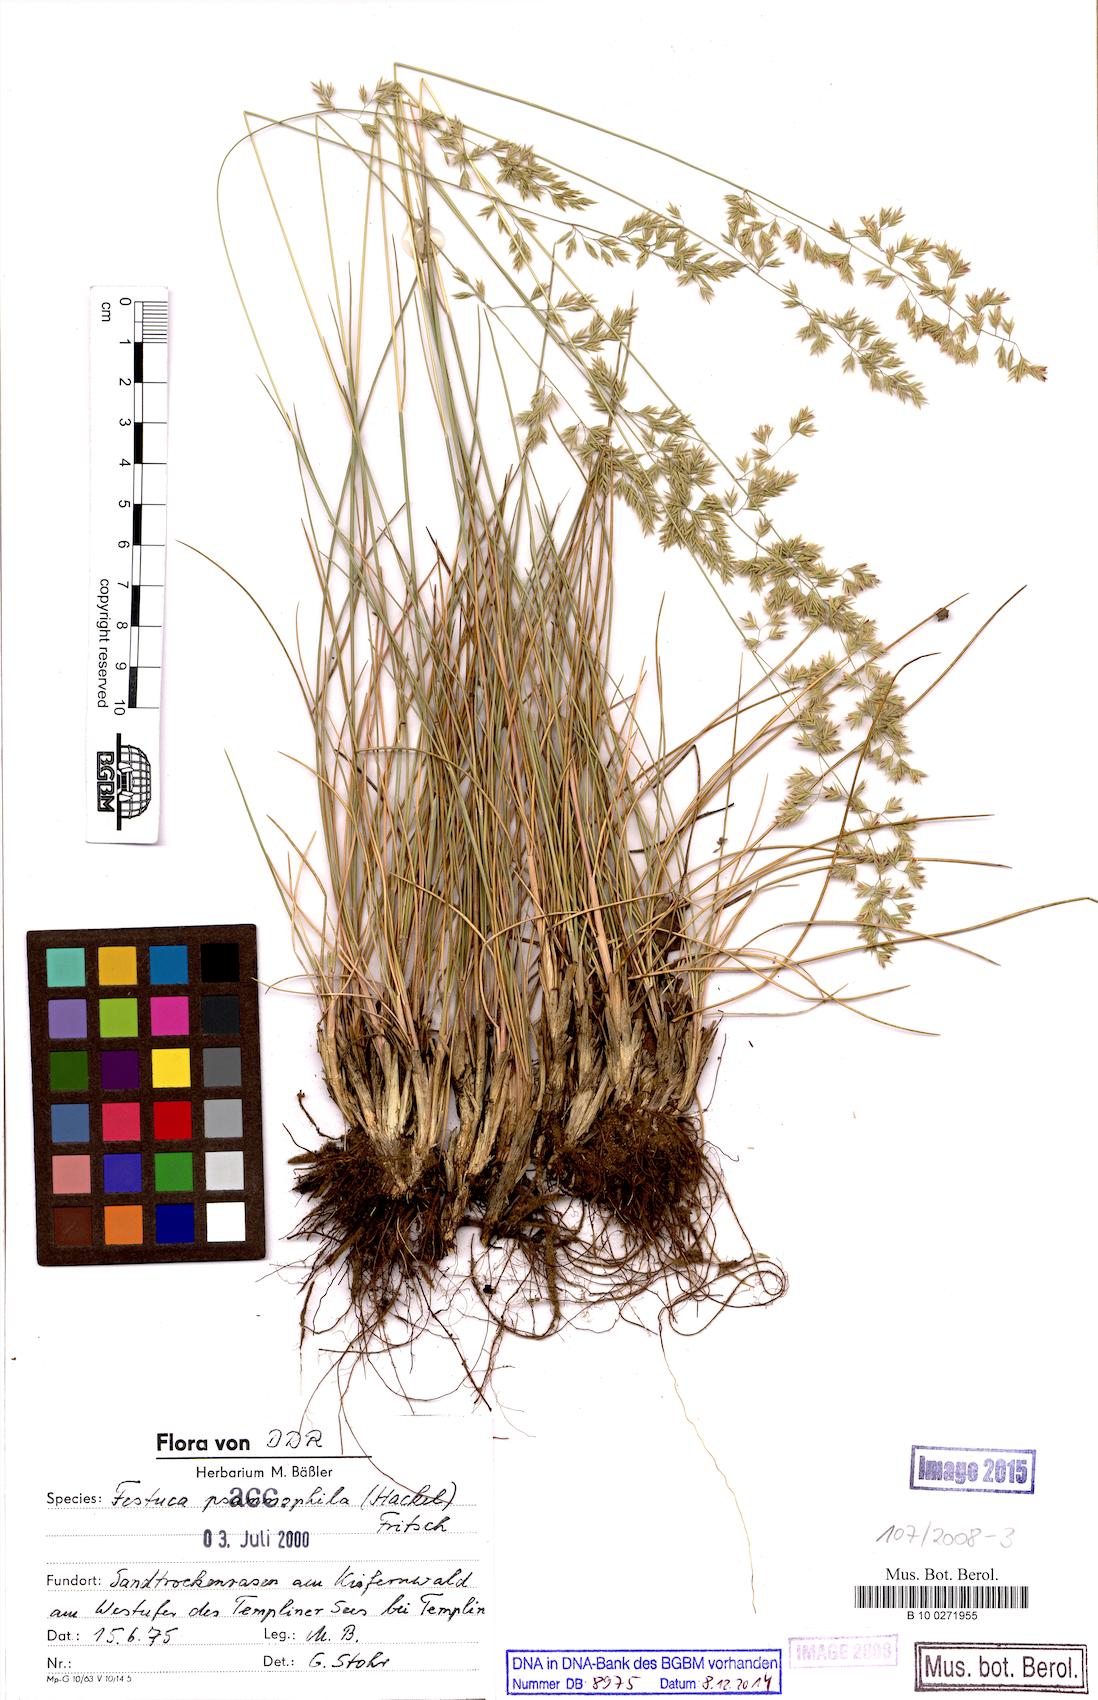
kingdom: Plantae
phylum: Tracheophyta
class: Liliopsida
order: Poales
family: Poaceae
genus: Festuca
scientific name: Festuca psammophila
